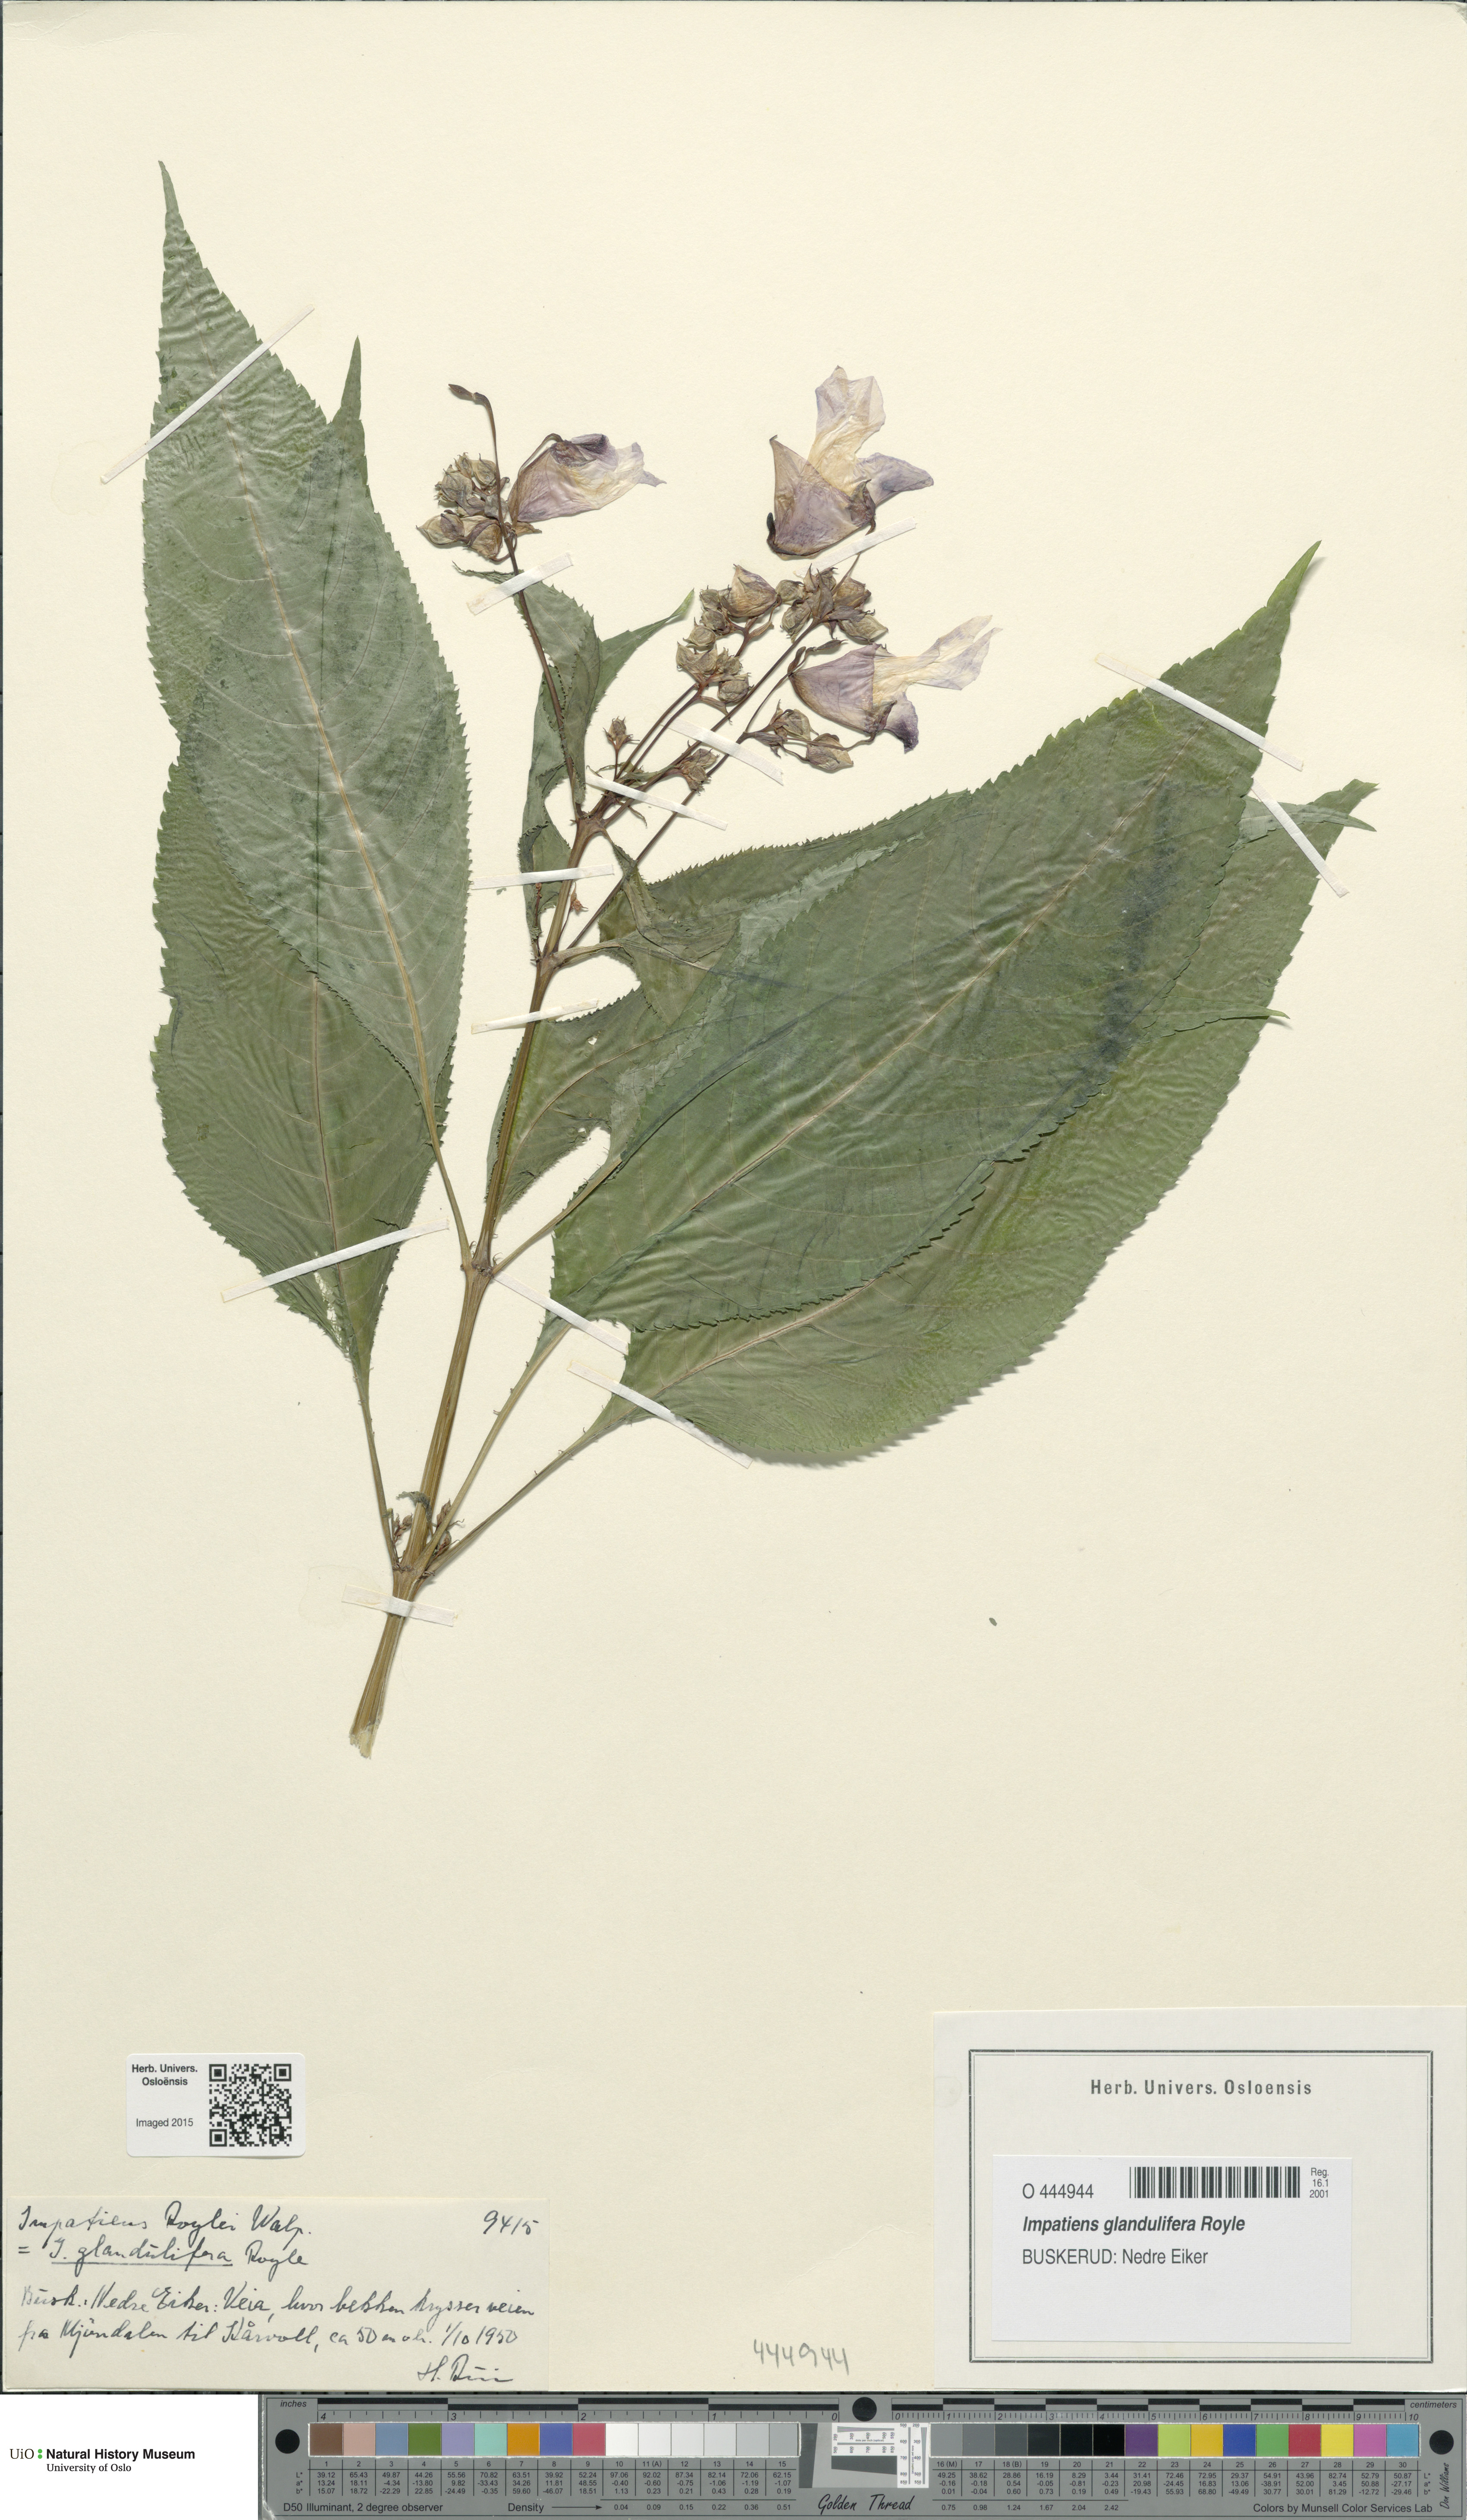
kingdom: Plantae
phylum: Tracheophyta
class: Magnoliopsida
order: Ericales
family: Balsaminaceae
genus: Impatiens
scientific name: Impatiens glandulifera
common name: Himalayan balsam
